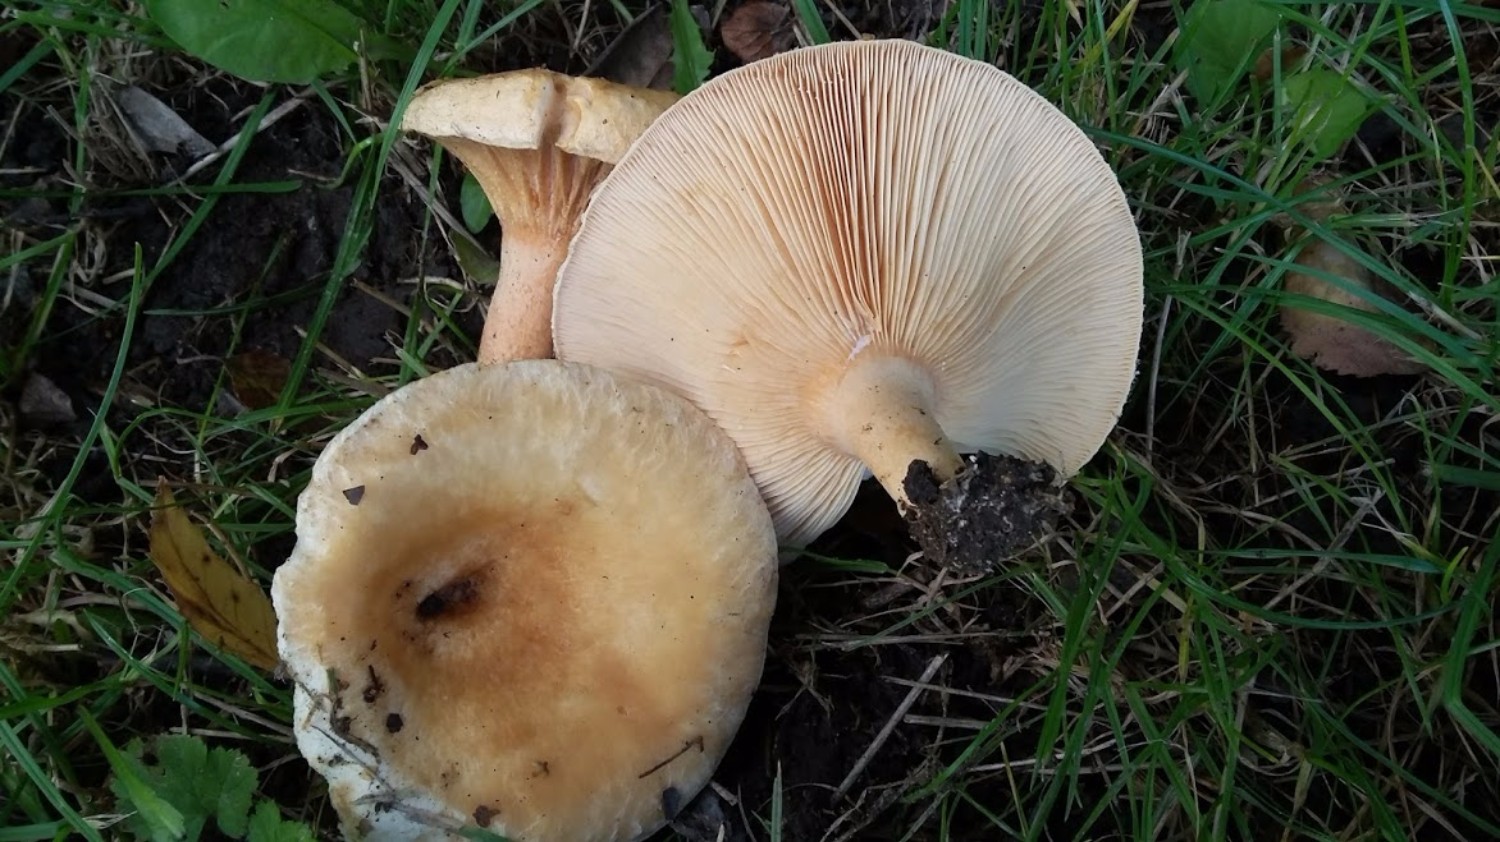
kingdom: Fungi
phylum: Basidiomycota
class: Agaricomycetes
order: Russulales
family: Russulaceae
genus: Lactarius
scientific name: Lactarius torminosus
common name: skægget mælkehat
